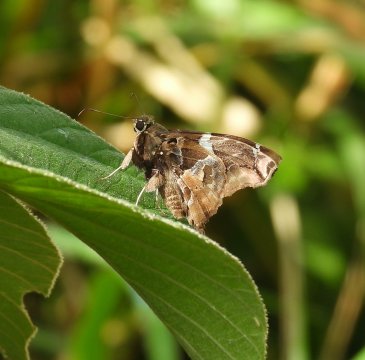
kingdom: Animalia
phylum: Arthropoda
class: Insecta
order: Lepidoptera
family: Hesperiidae
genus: Spathilepia
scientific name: Spathilepia clonius
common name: Falcate Skipper
